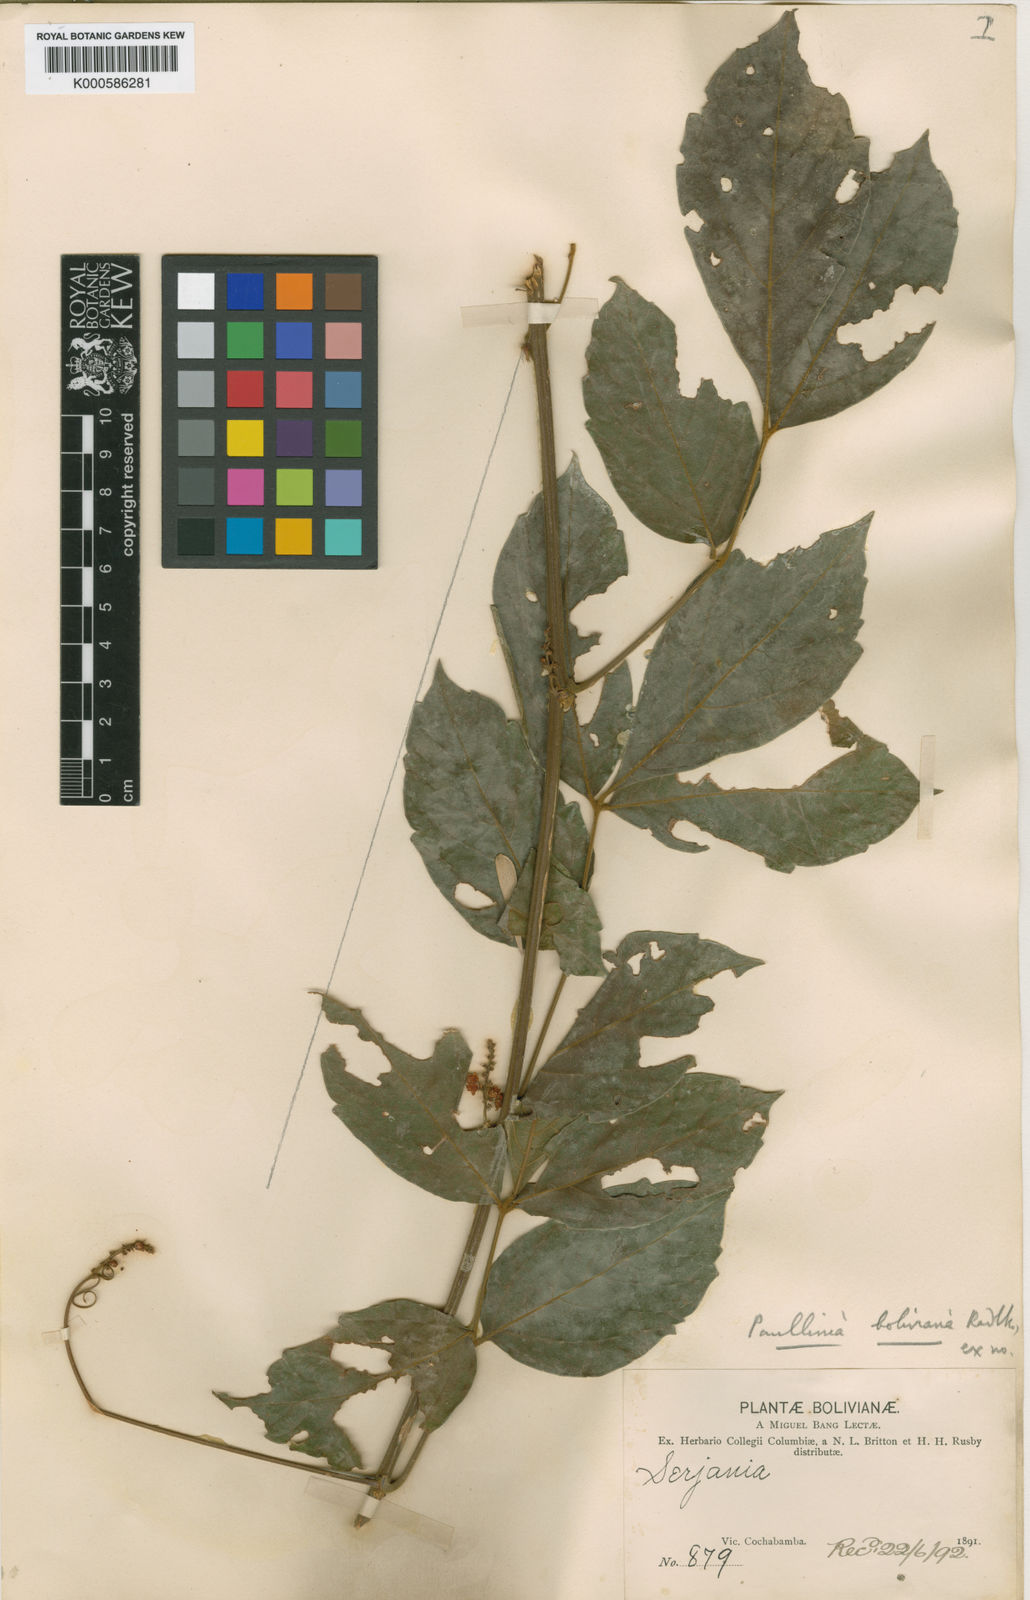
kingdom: Plantae
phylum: Tracheophyta
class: Magnoliopsida
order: Sapindales
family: Sapindaceae
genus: Paullinia
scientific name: Paullinia boliviana
